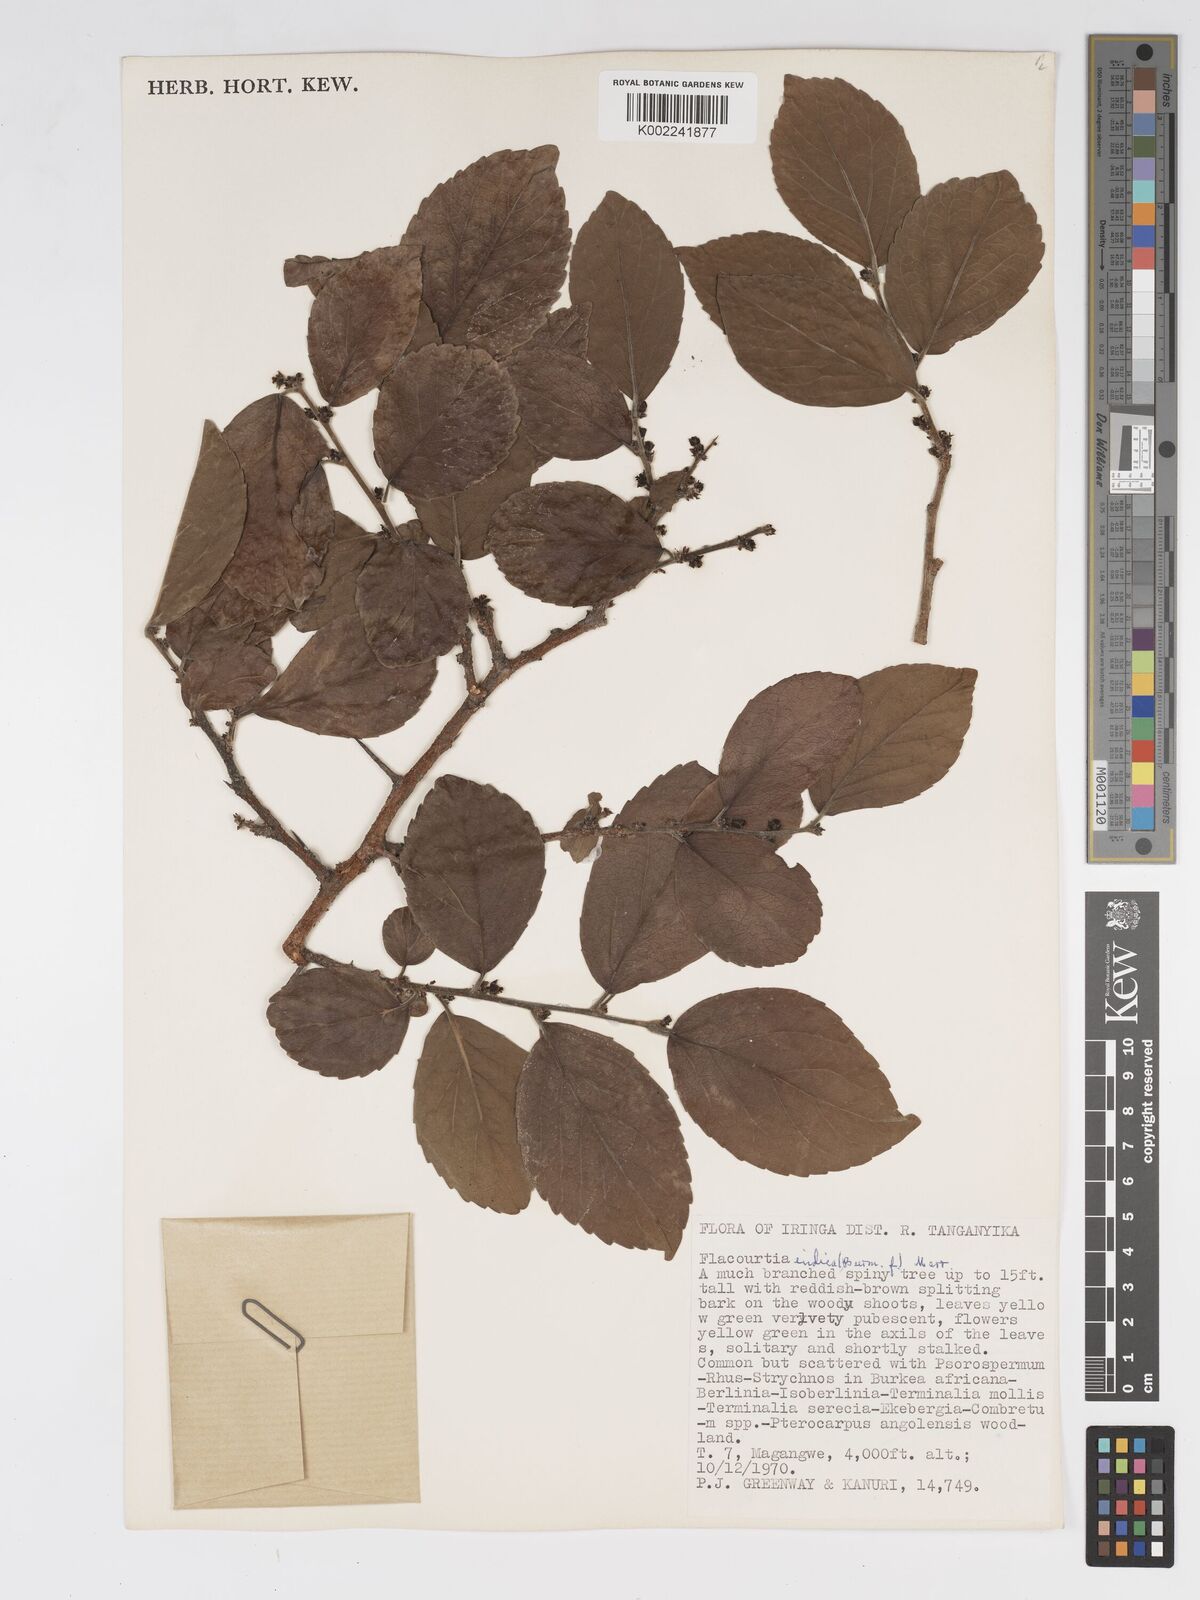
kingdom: Plantae
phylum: Tracheophyta
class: Magnoliopsida
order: Malpighiales
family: Salicaceae
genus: Flacourtia
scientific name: Flacourtia indica
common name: Governor's plum
